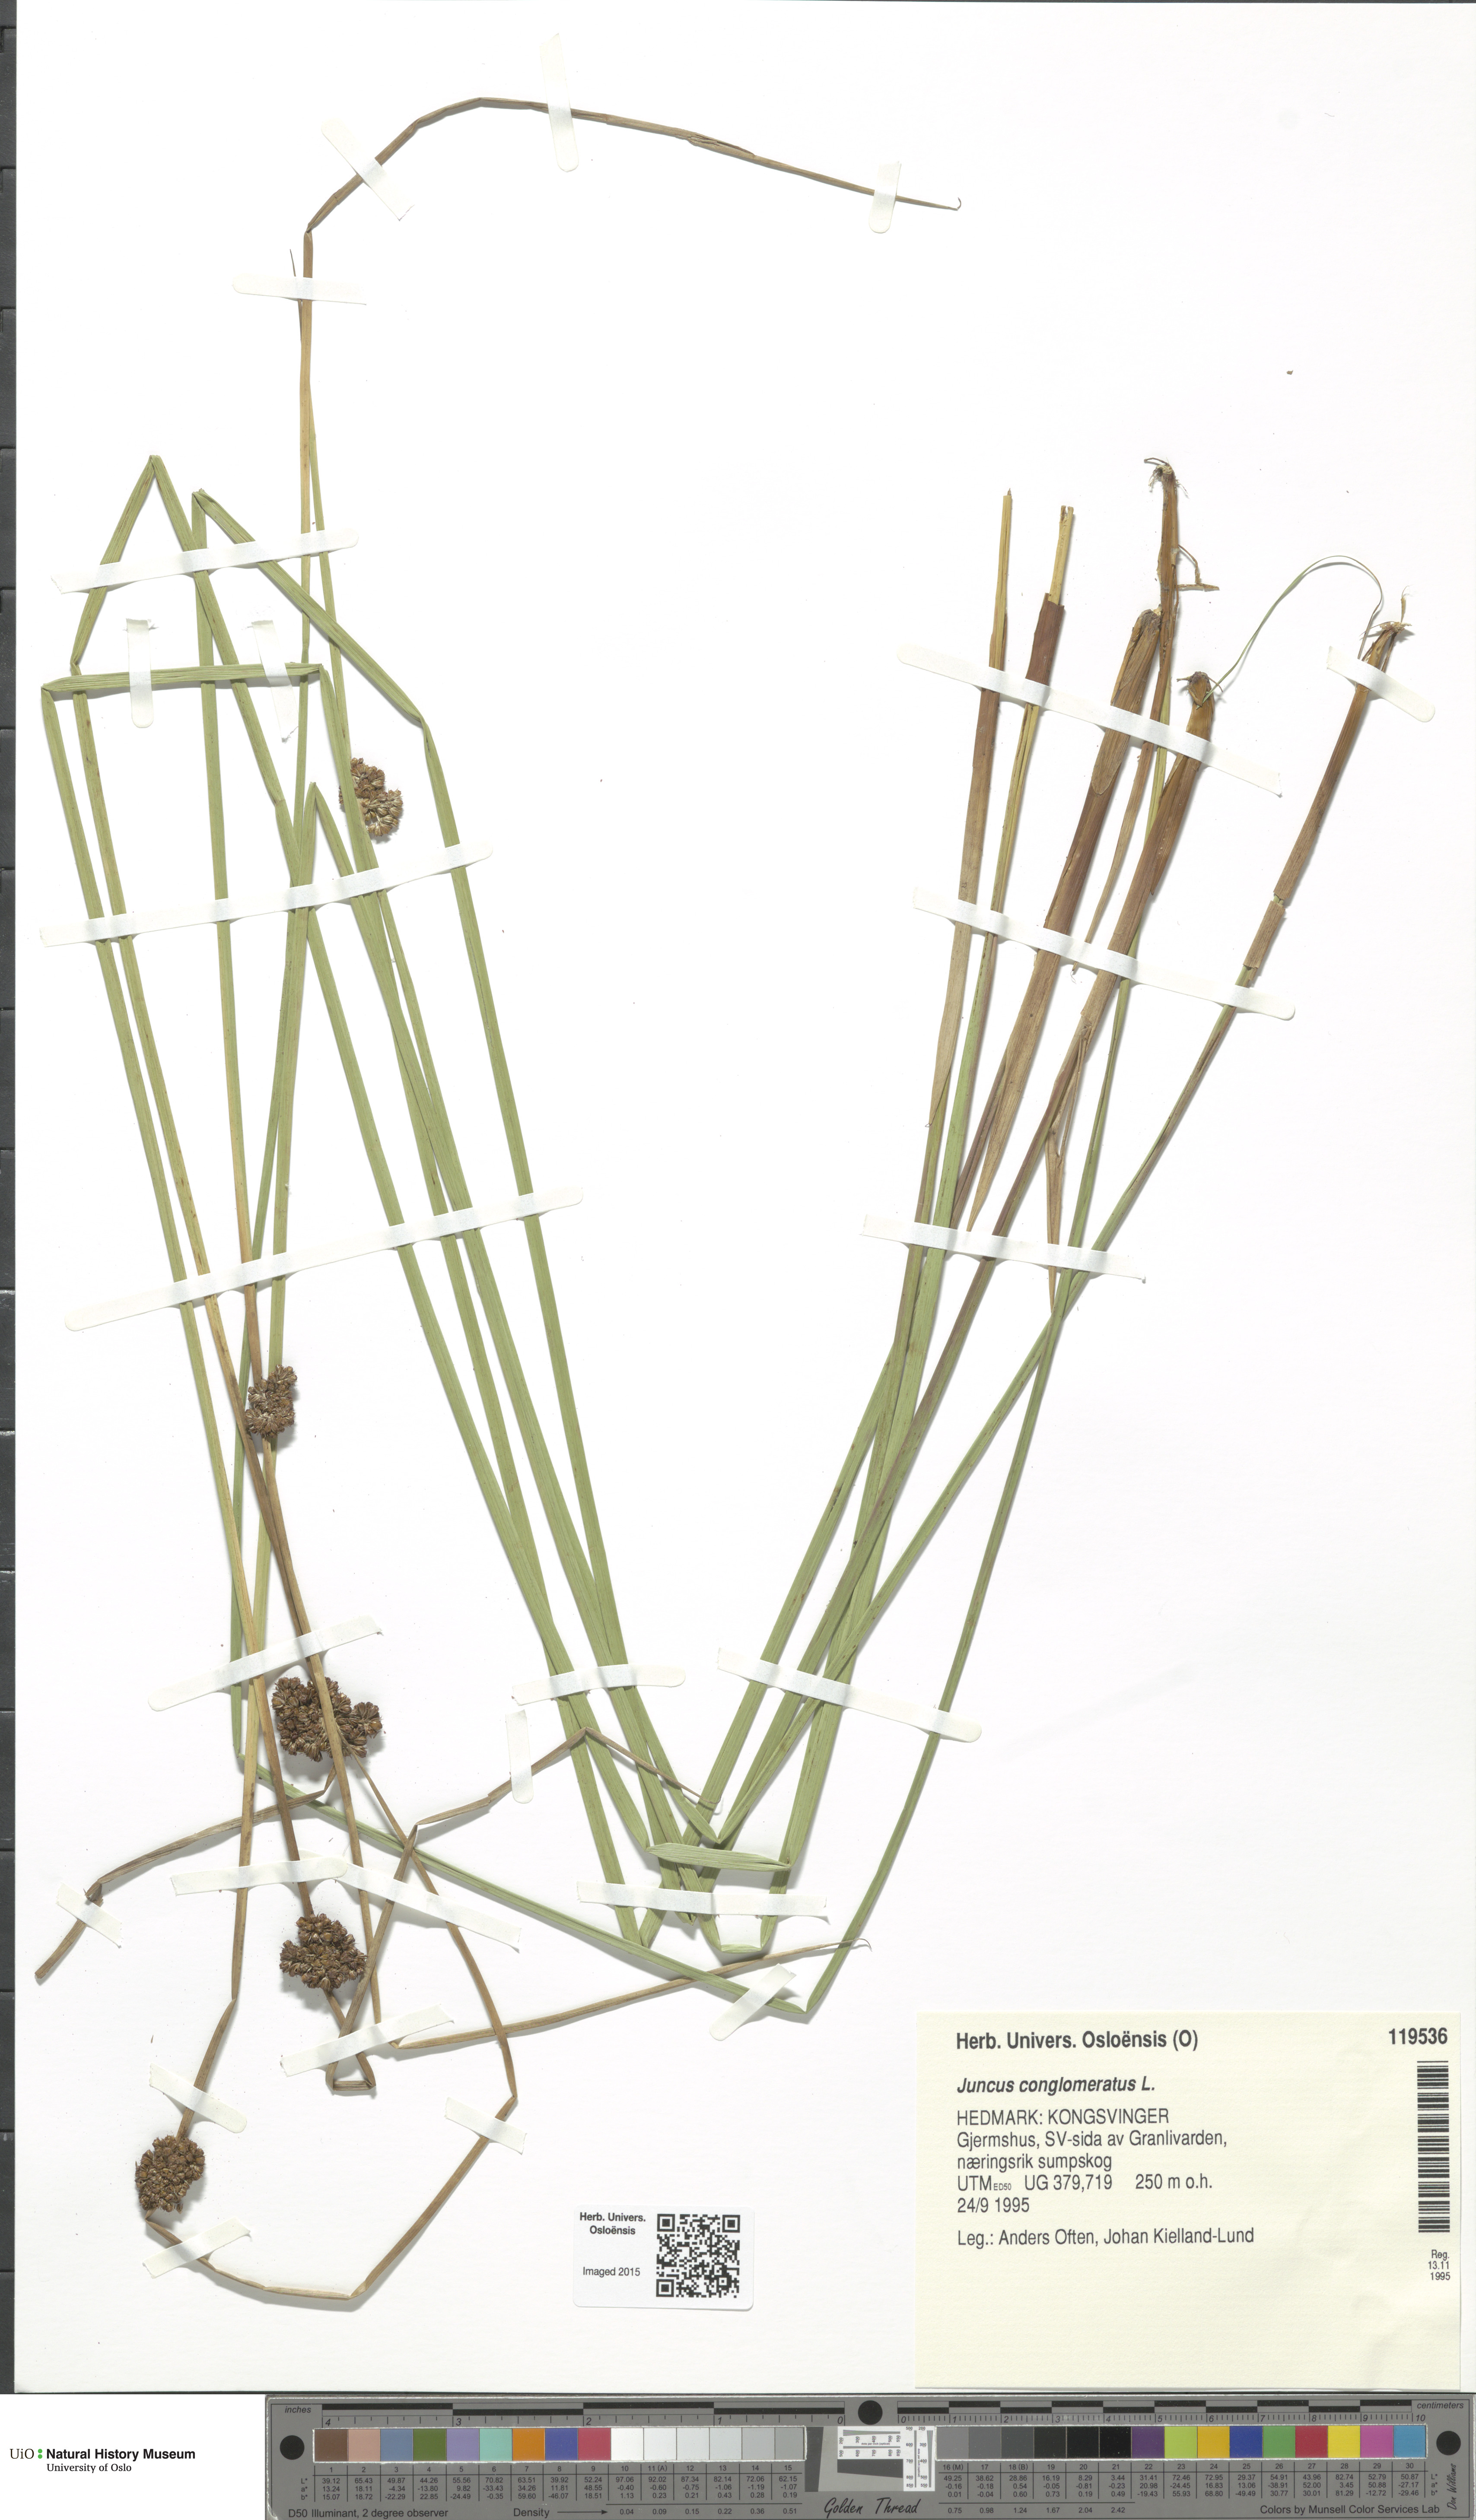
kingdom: Plantae
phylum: Tracheophyta
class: Liliopsida
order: Poales
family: Juncaceae
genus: Juncus
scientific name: Juncus conglomeratus
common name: Compact rush
